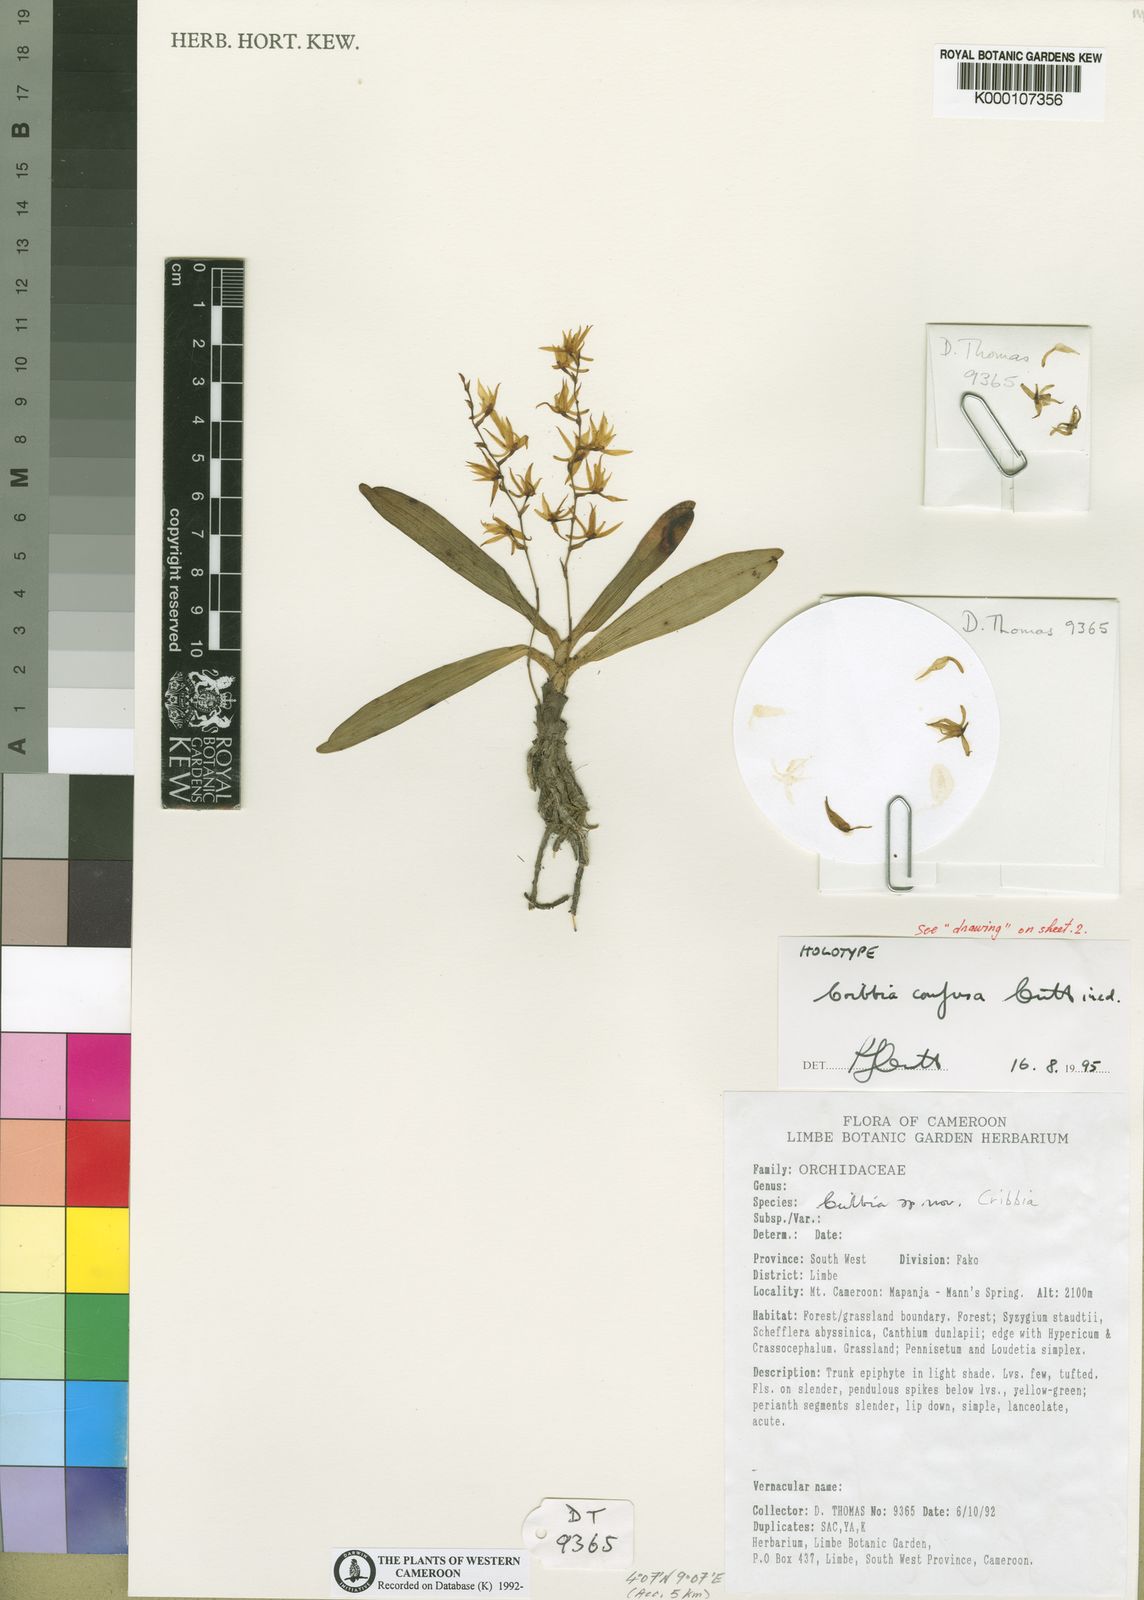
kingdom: Plantae
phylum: Tracheophyta
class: Liliopsida
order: Asparagales
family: Orchidaceae
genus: Rhipidoglossum
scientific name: Rhipidoglossum confusum
